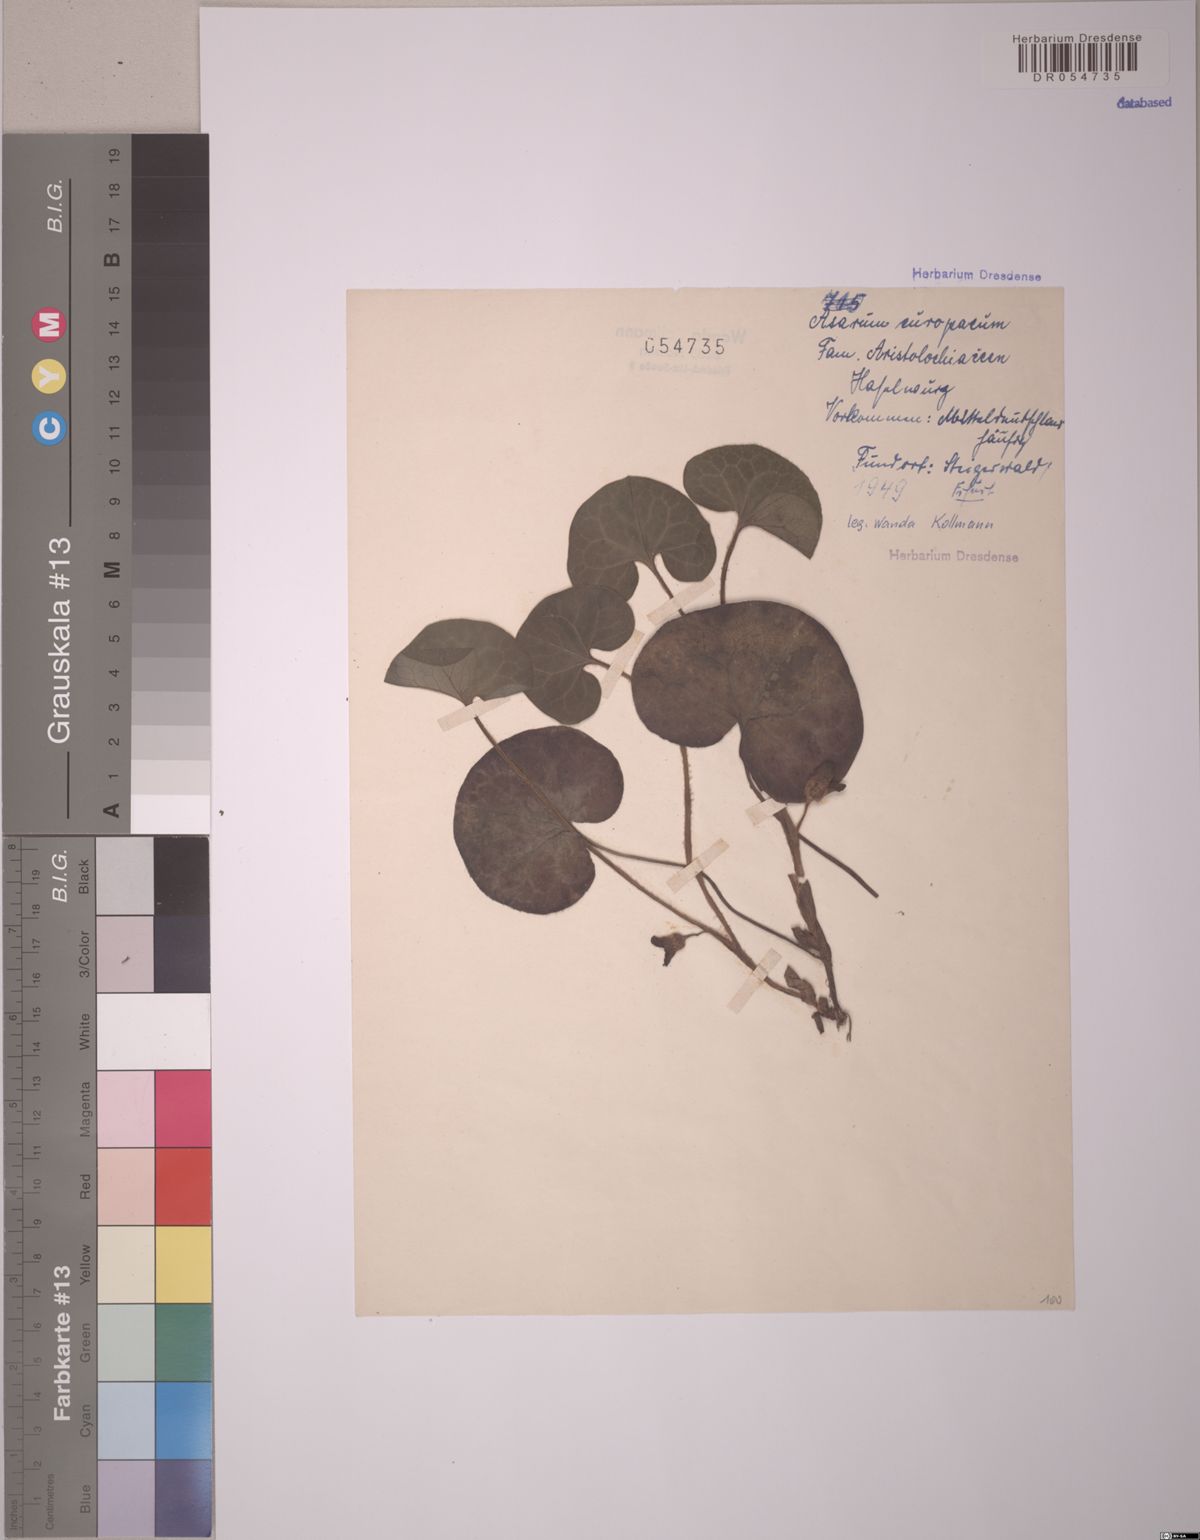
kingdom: Plantae
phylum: Tracheophyta
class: Magnoliopsida
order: Piperales
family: Aristolochiaceae
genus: Asarum
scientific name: Asarum europaeum
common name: Asarabacca
